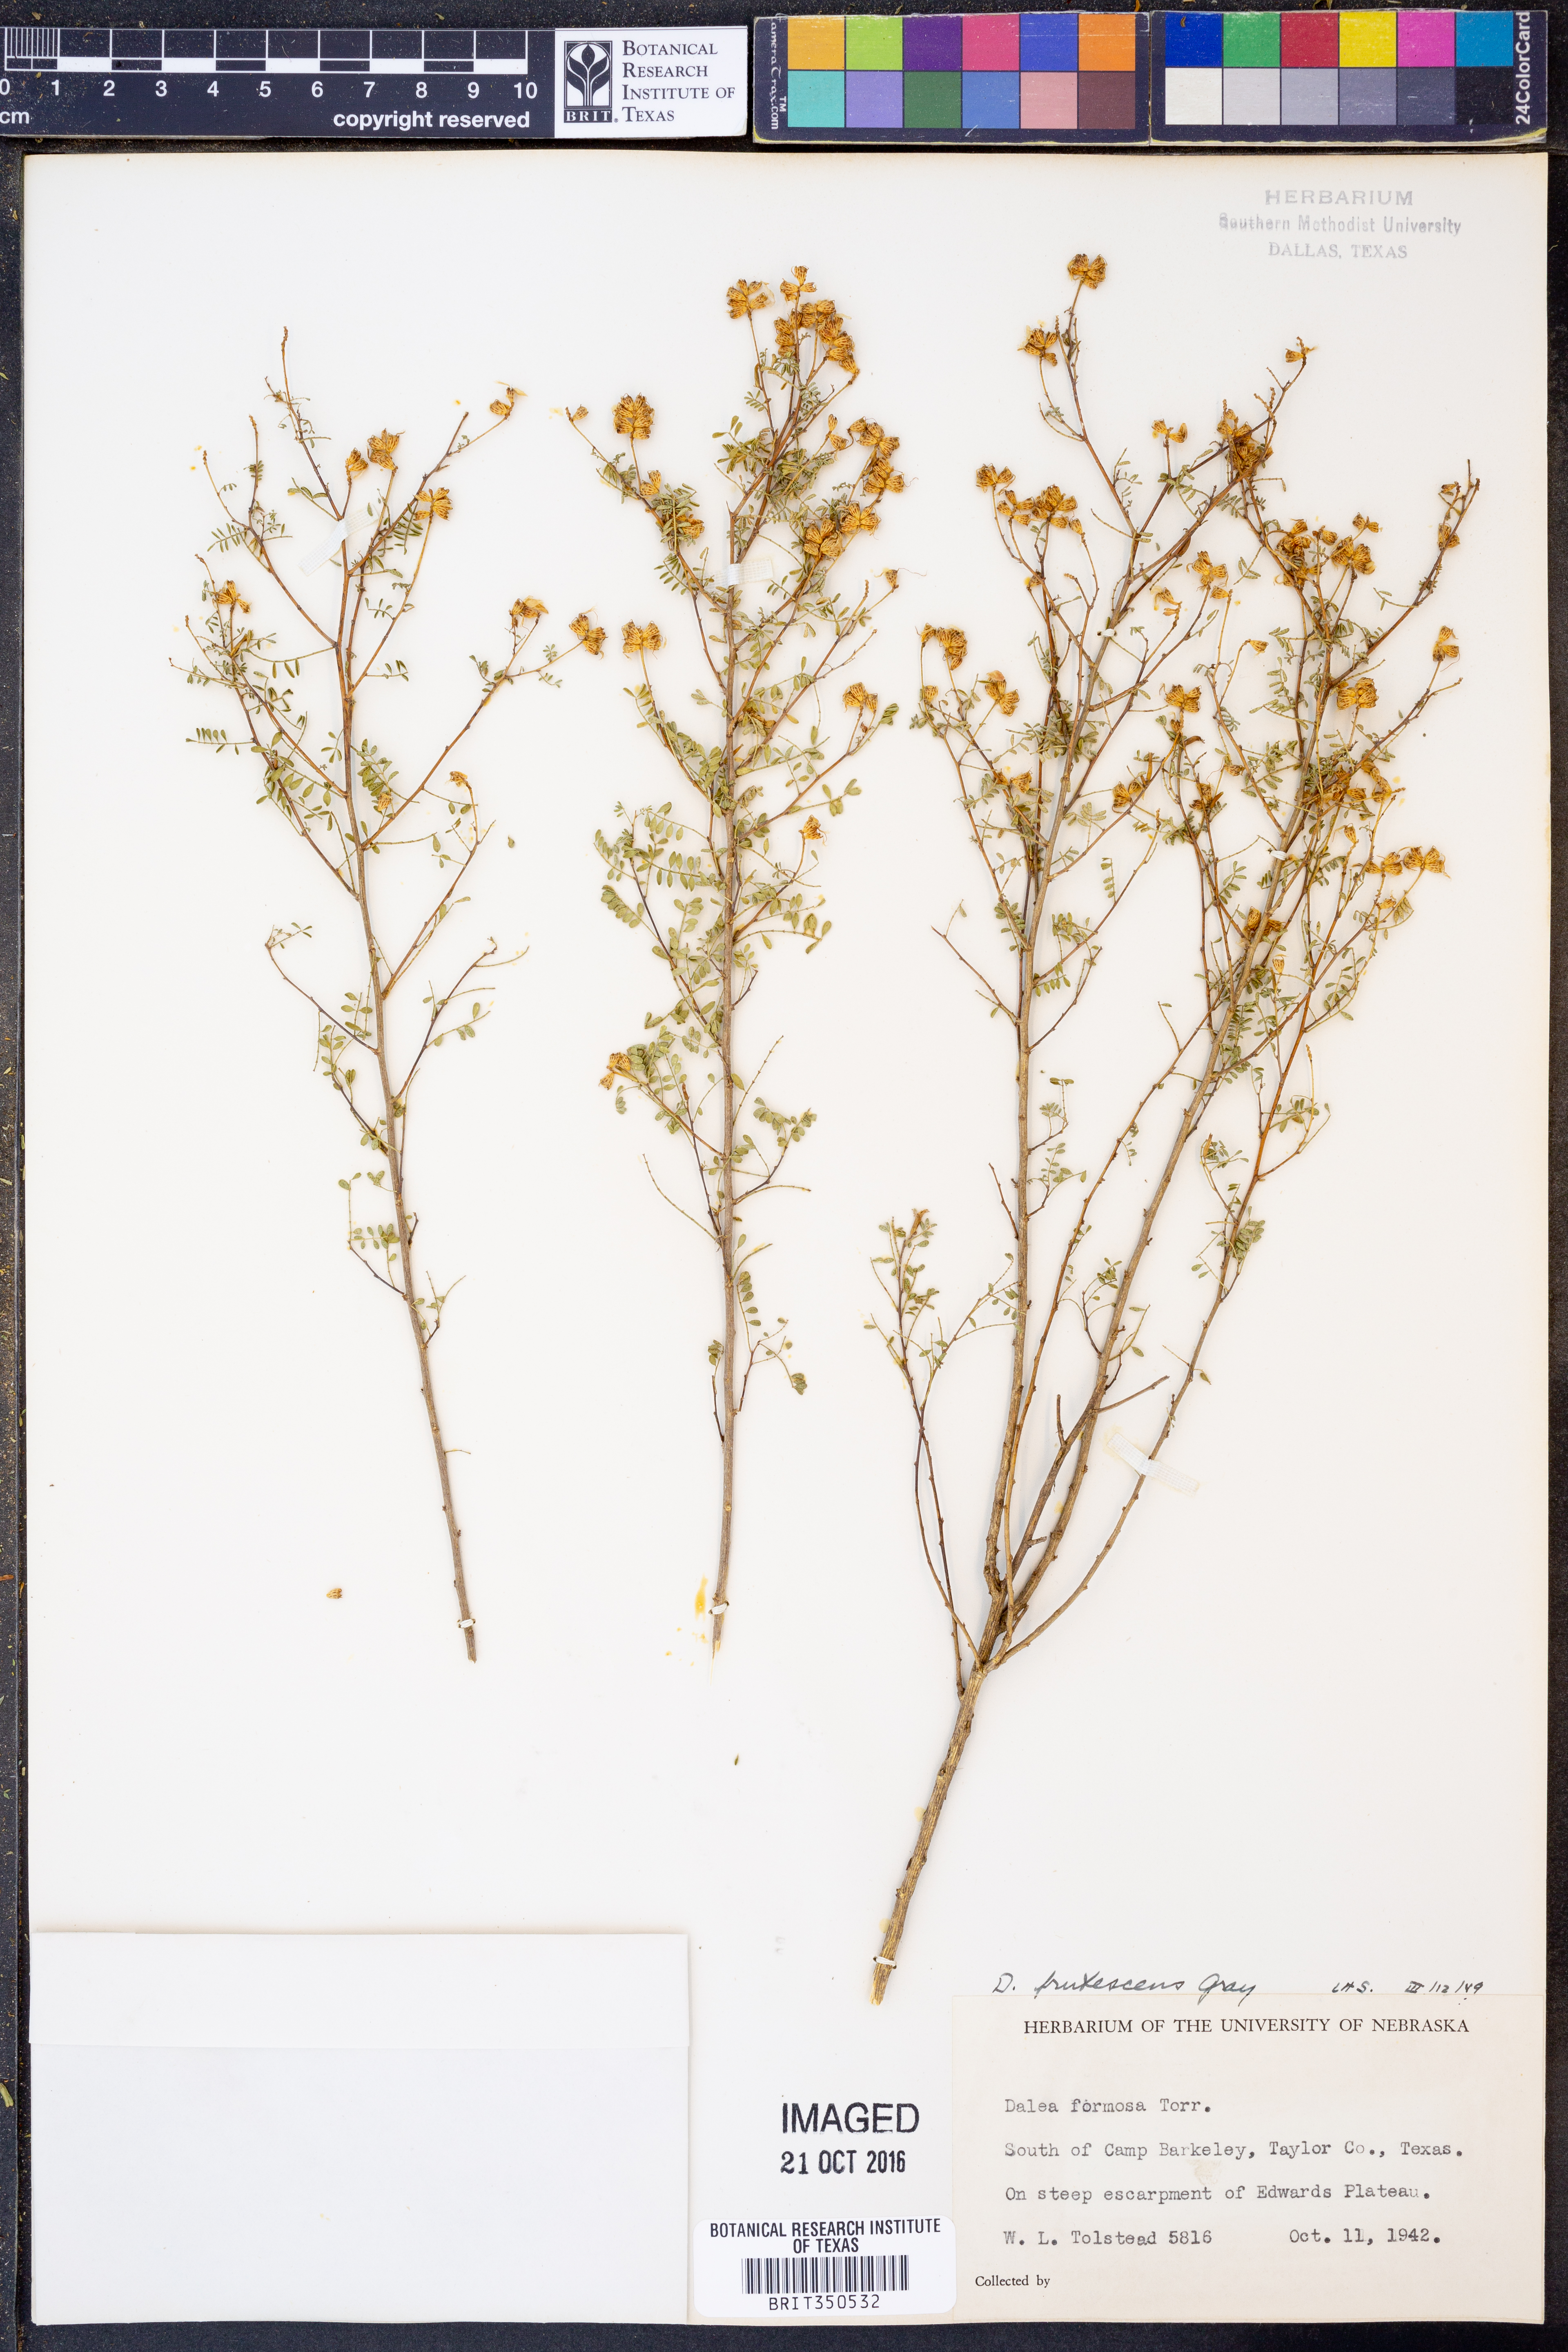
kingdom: Plantae
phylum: Tracheophyta
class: Magnoliopsida
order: Fabales
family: Fabaceae
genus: Dalea
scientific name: Dalea frutescens
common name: Black dalea
